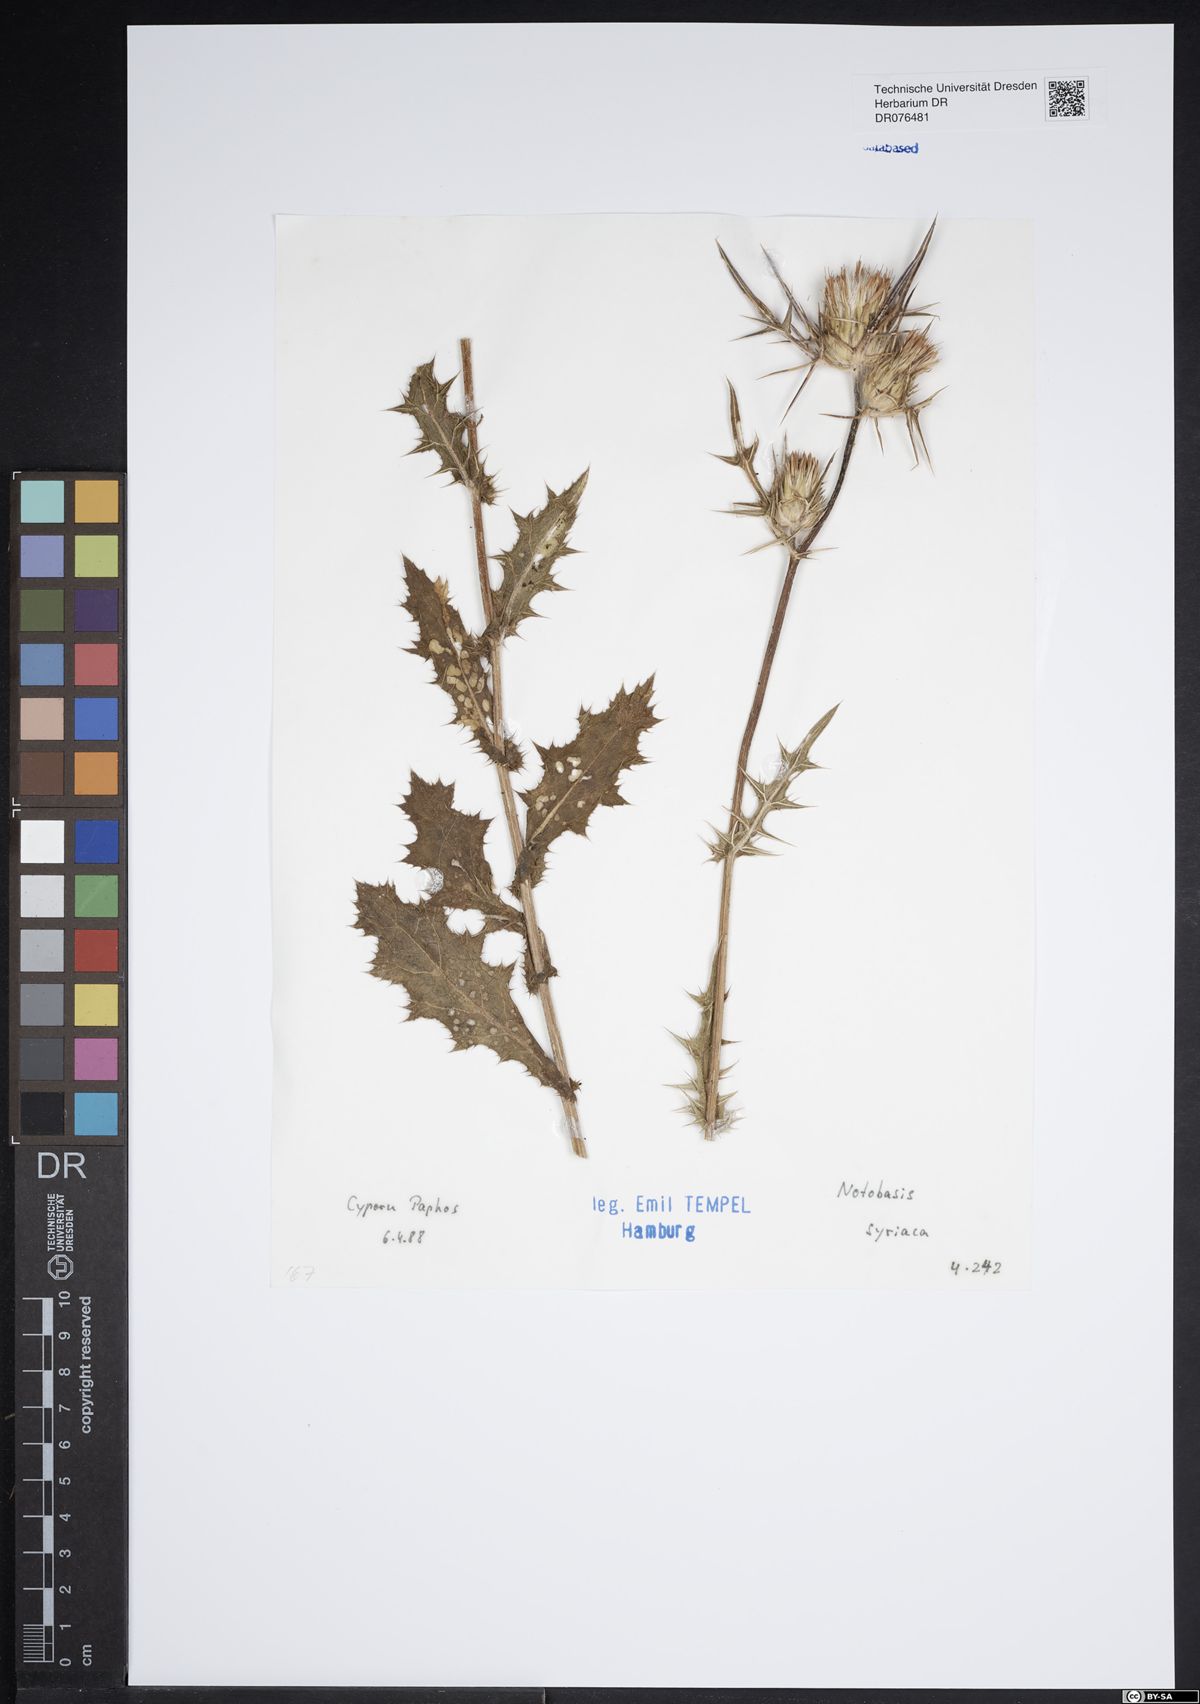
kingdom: Plantae
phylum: Tracheophyta
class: Magnoliopsida
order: Asterales
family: Asteraceae
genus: Notobasis
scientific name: Notobasis syriaca
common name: Syrian thistle
